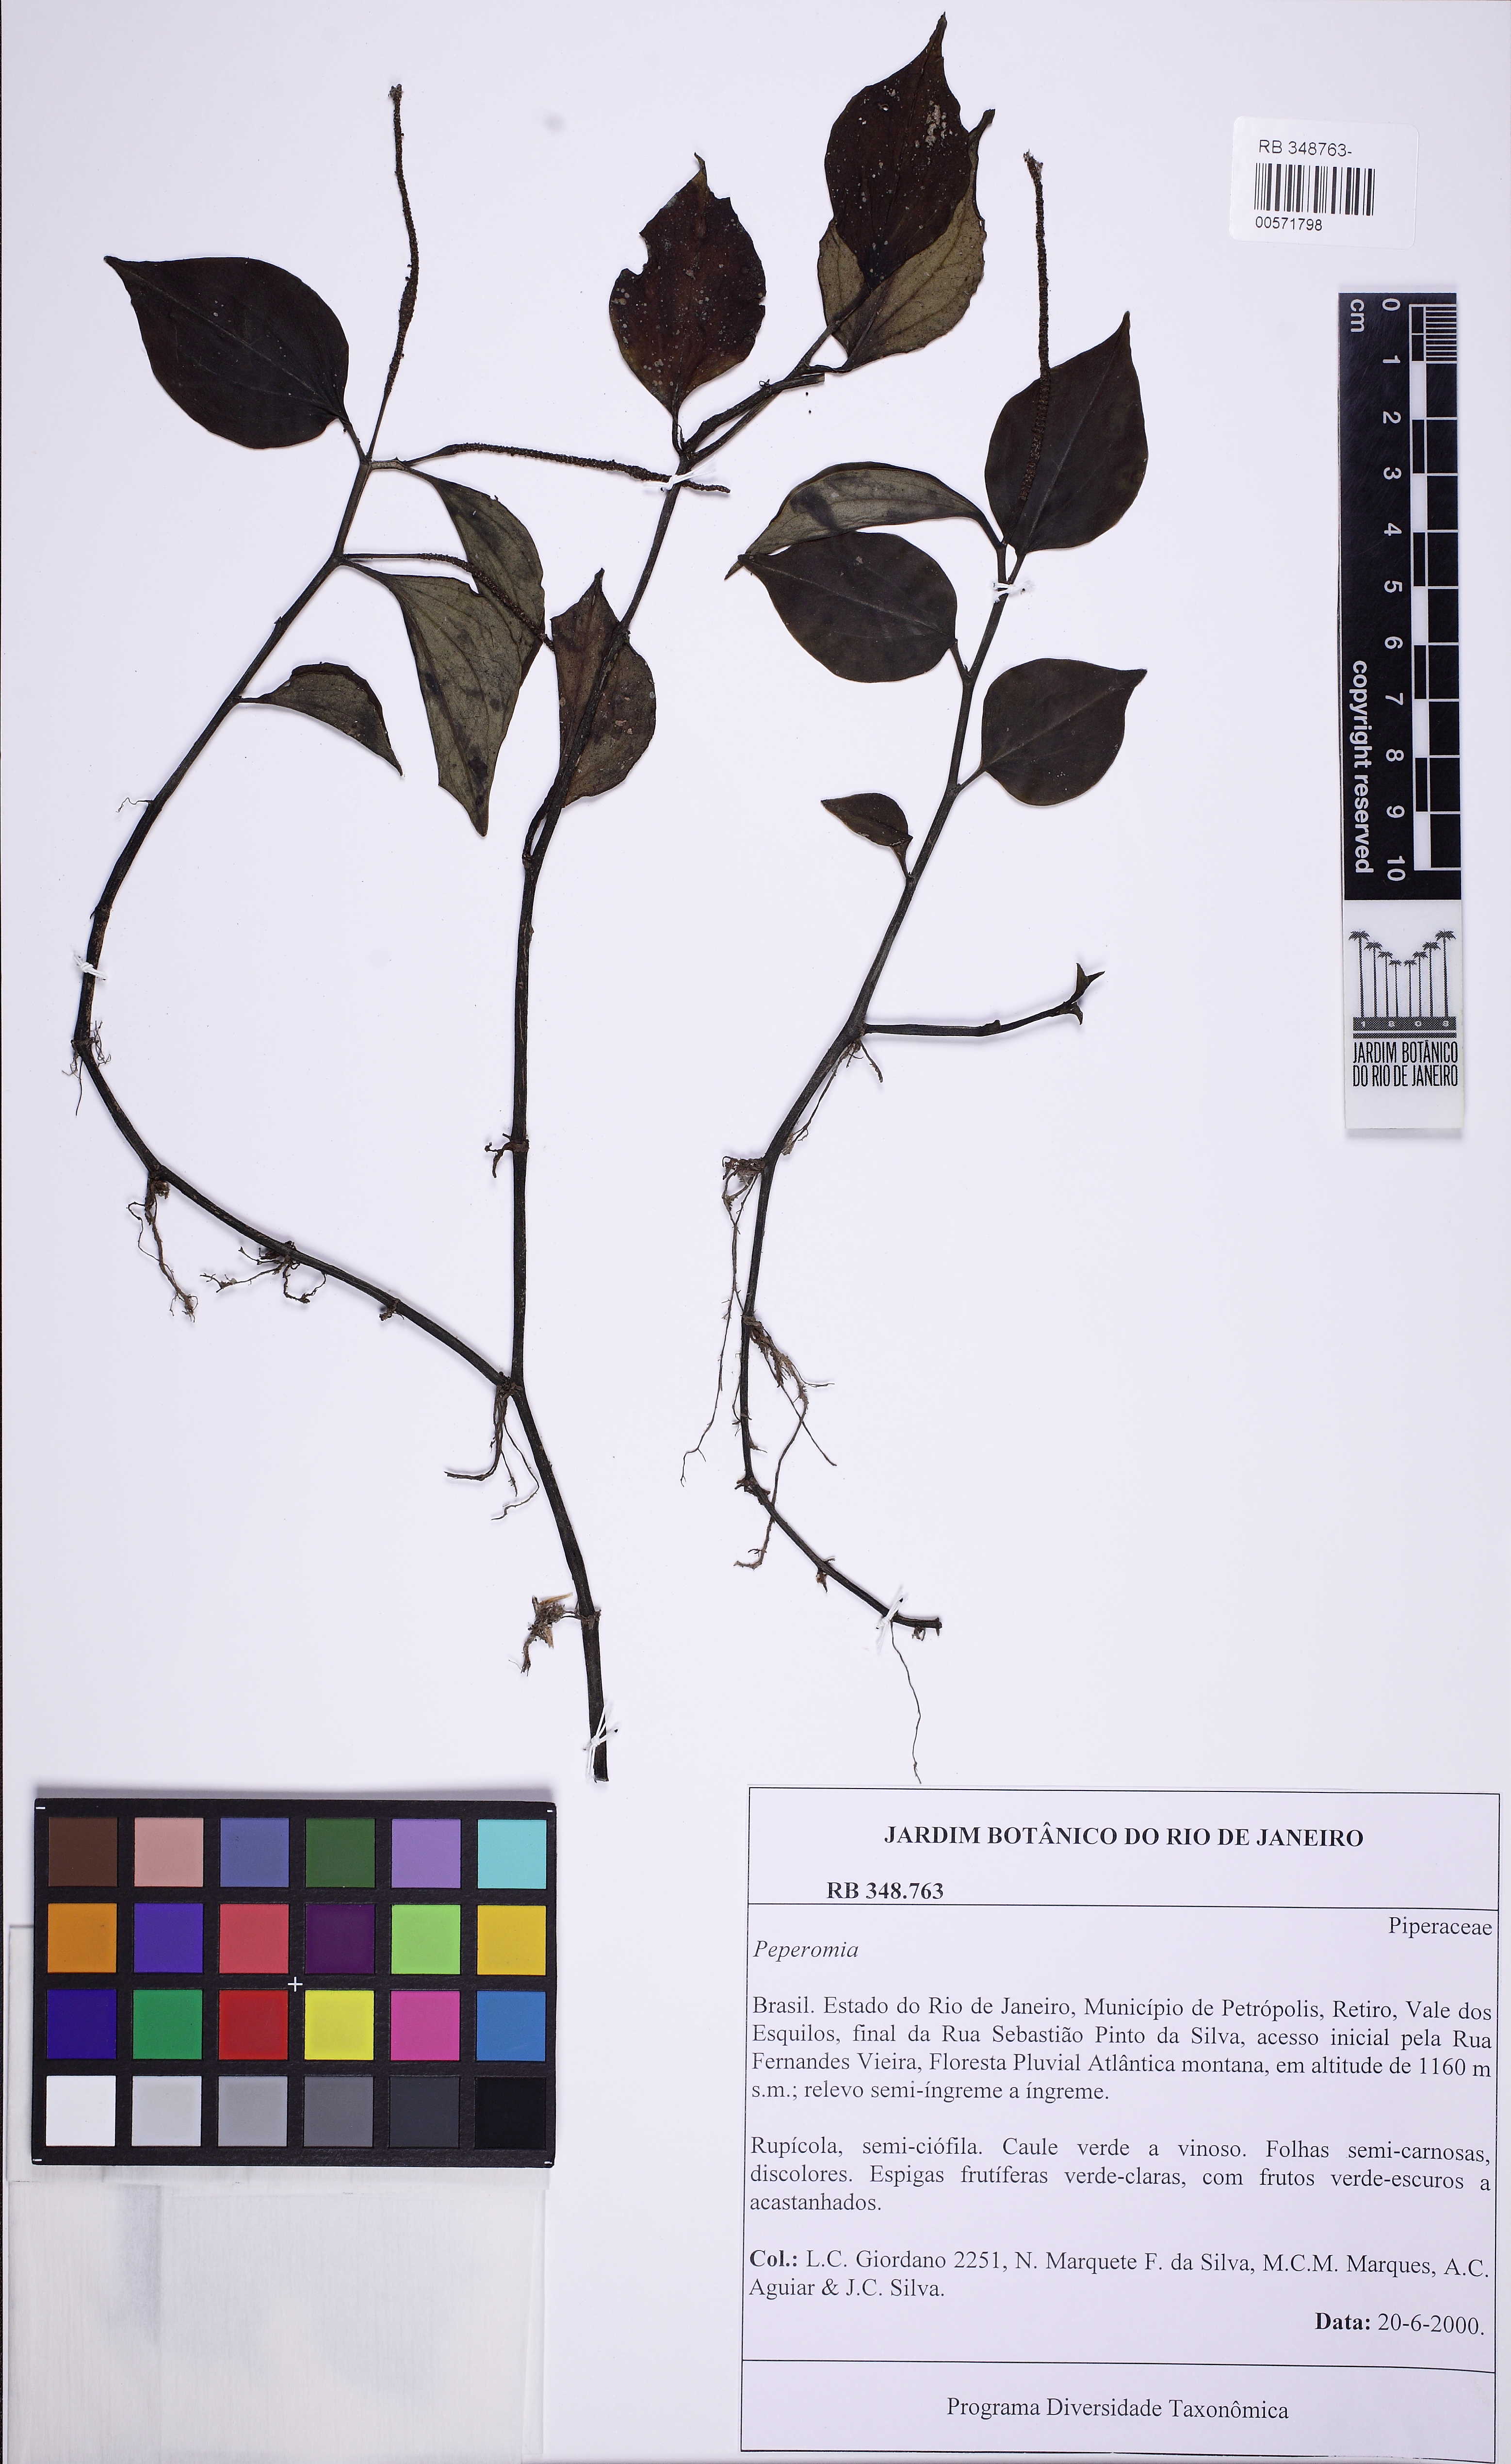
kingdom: Plantae
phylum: Tracheophyta
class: Magnoliopsida
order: Piperales
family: Piperaceae
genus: Peperomia
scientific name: Peperomia alata
